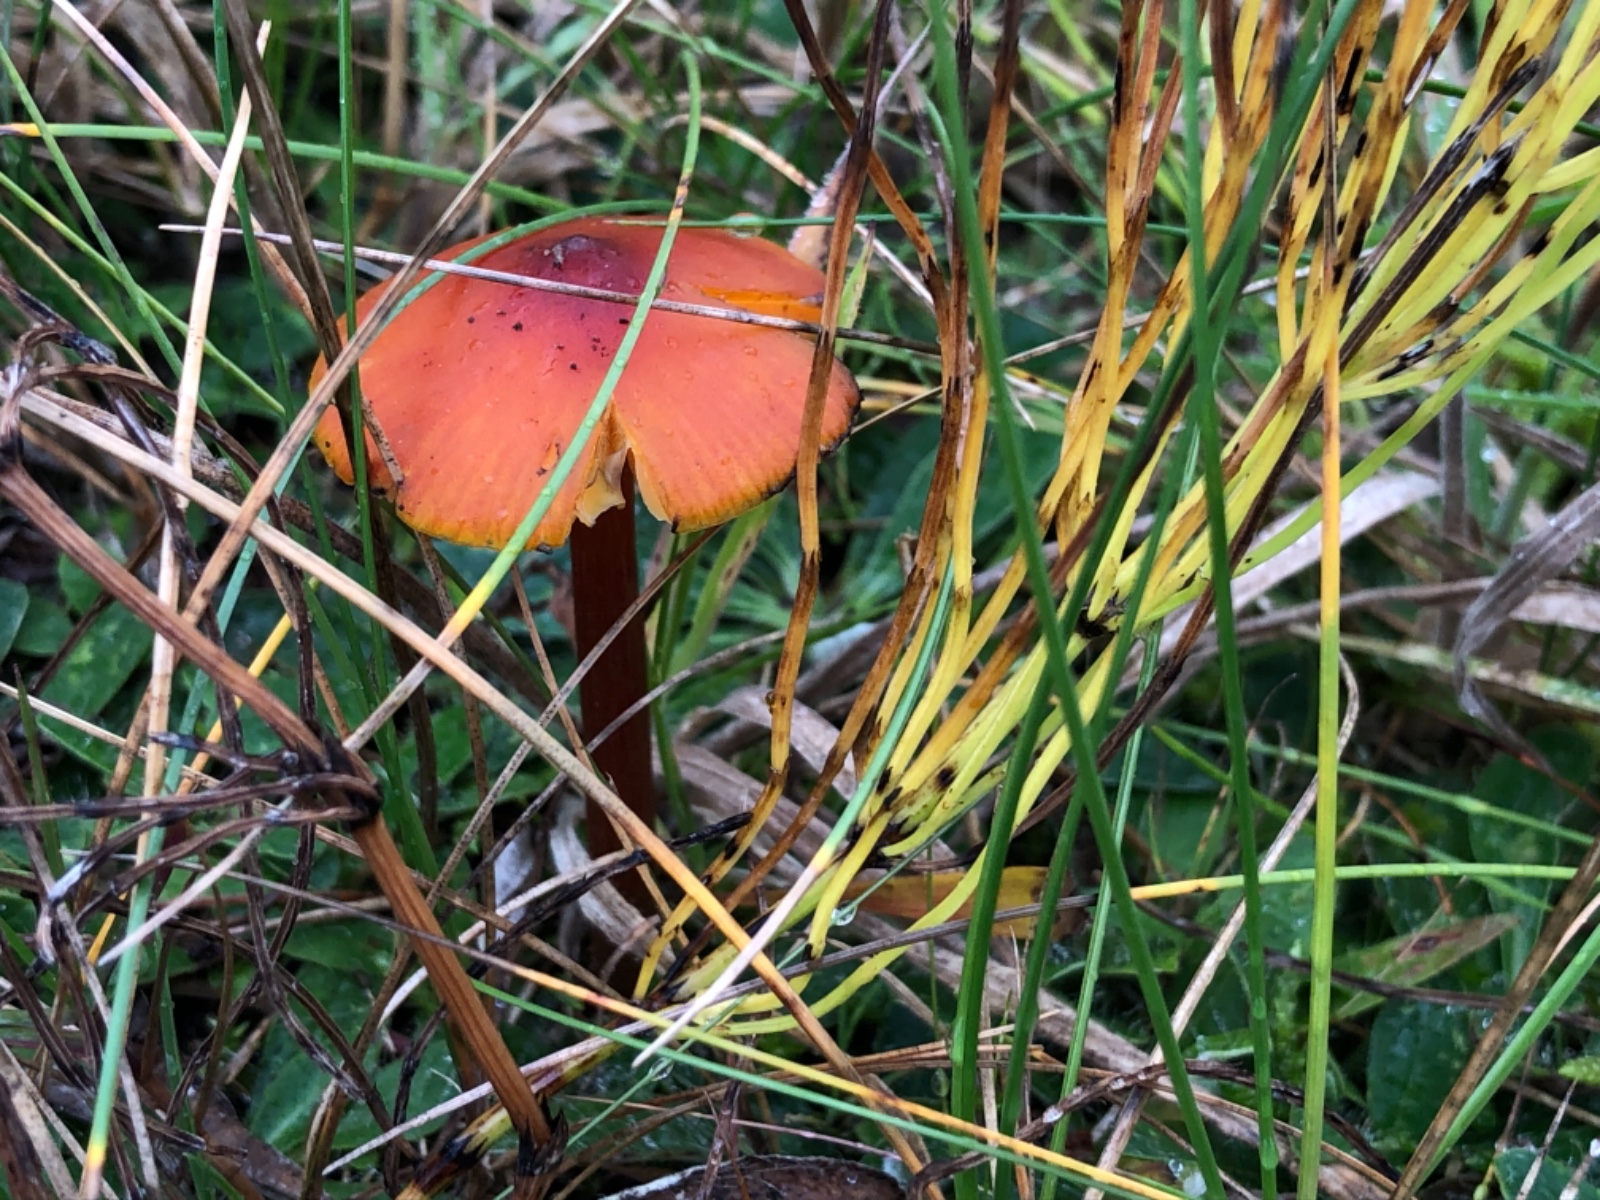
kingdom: Fungi
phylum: Basidiomycota
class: Agaricomycetes
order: Agaricales
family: Hygrophoraceae
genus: Hygrocybe
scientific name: Hygrocybe conica
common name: kegle-vokshat
